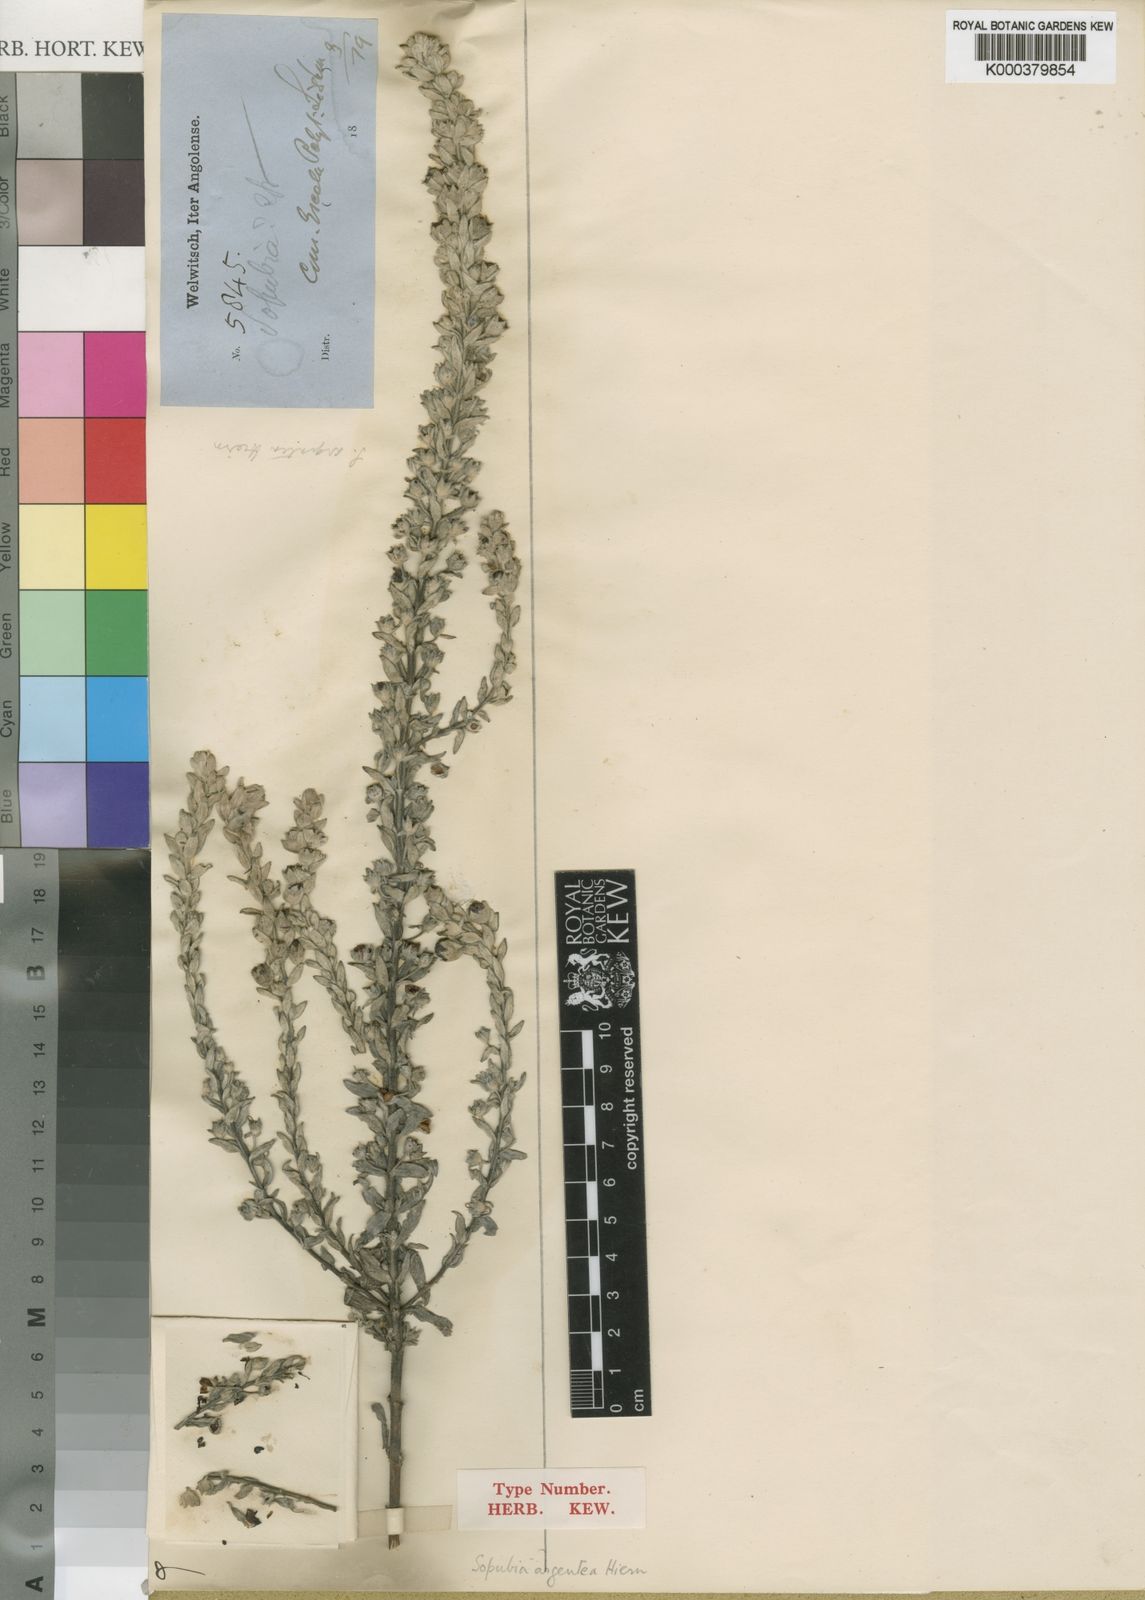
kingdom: Plantae
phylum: Tracheophyta
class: Magnoliopsida
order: Lamiales
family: Orobanchaceae
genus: Sopubia
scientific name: Sopubia argentea
